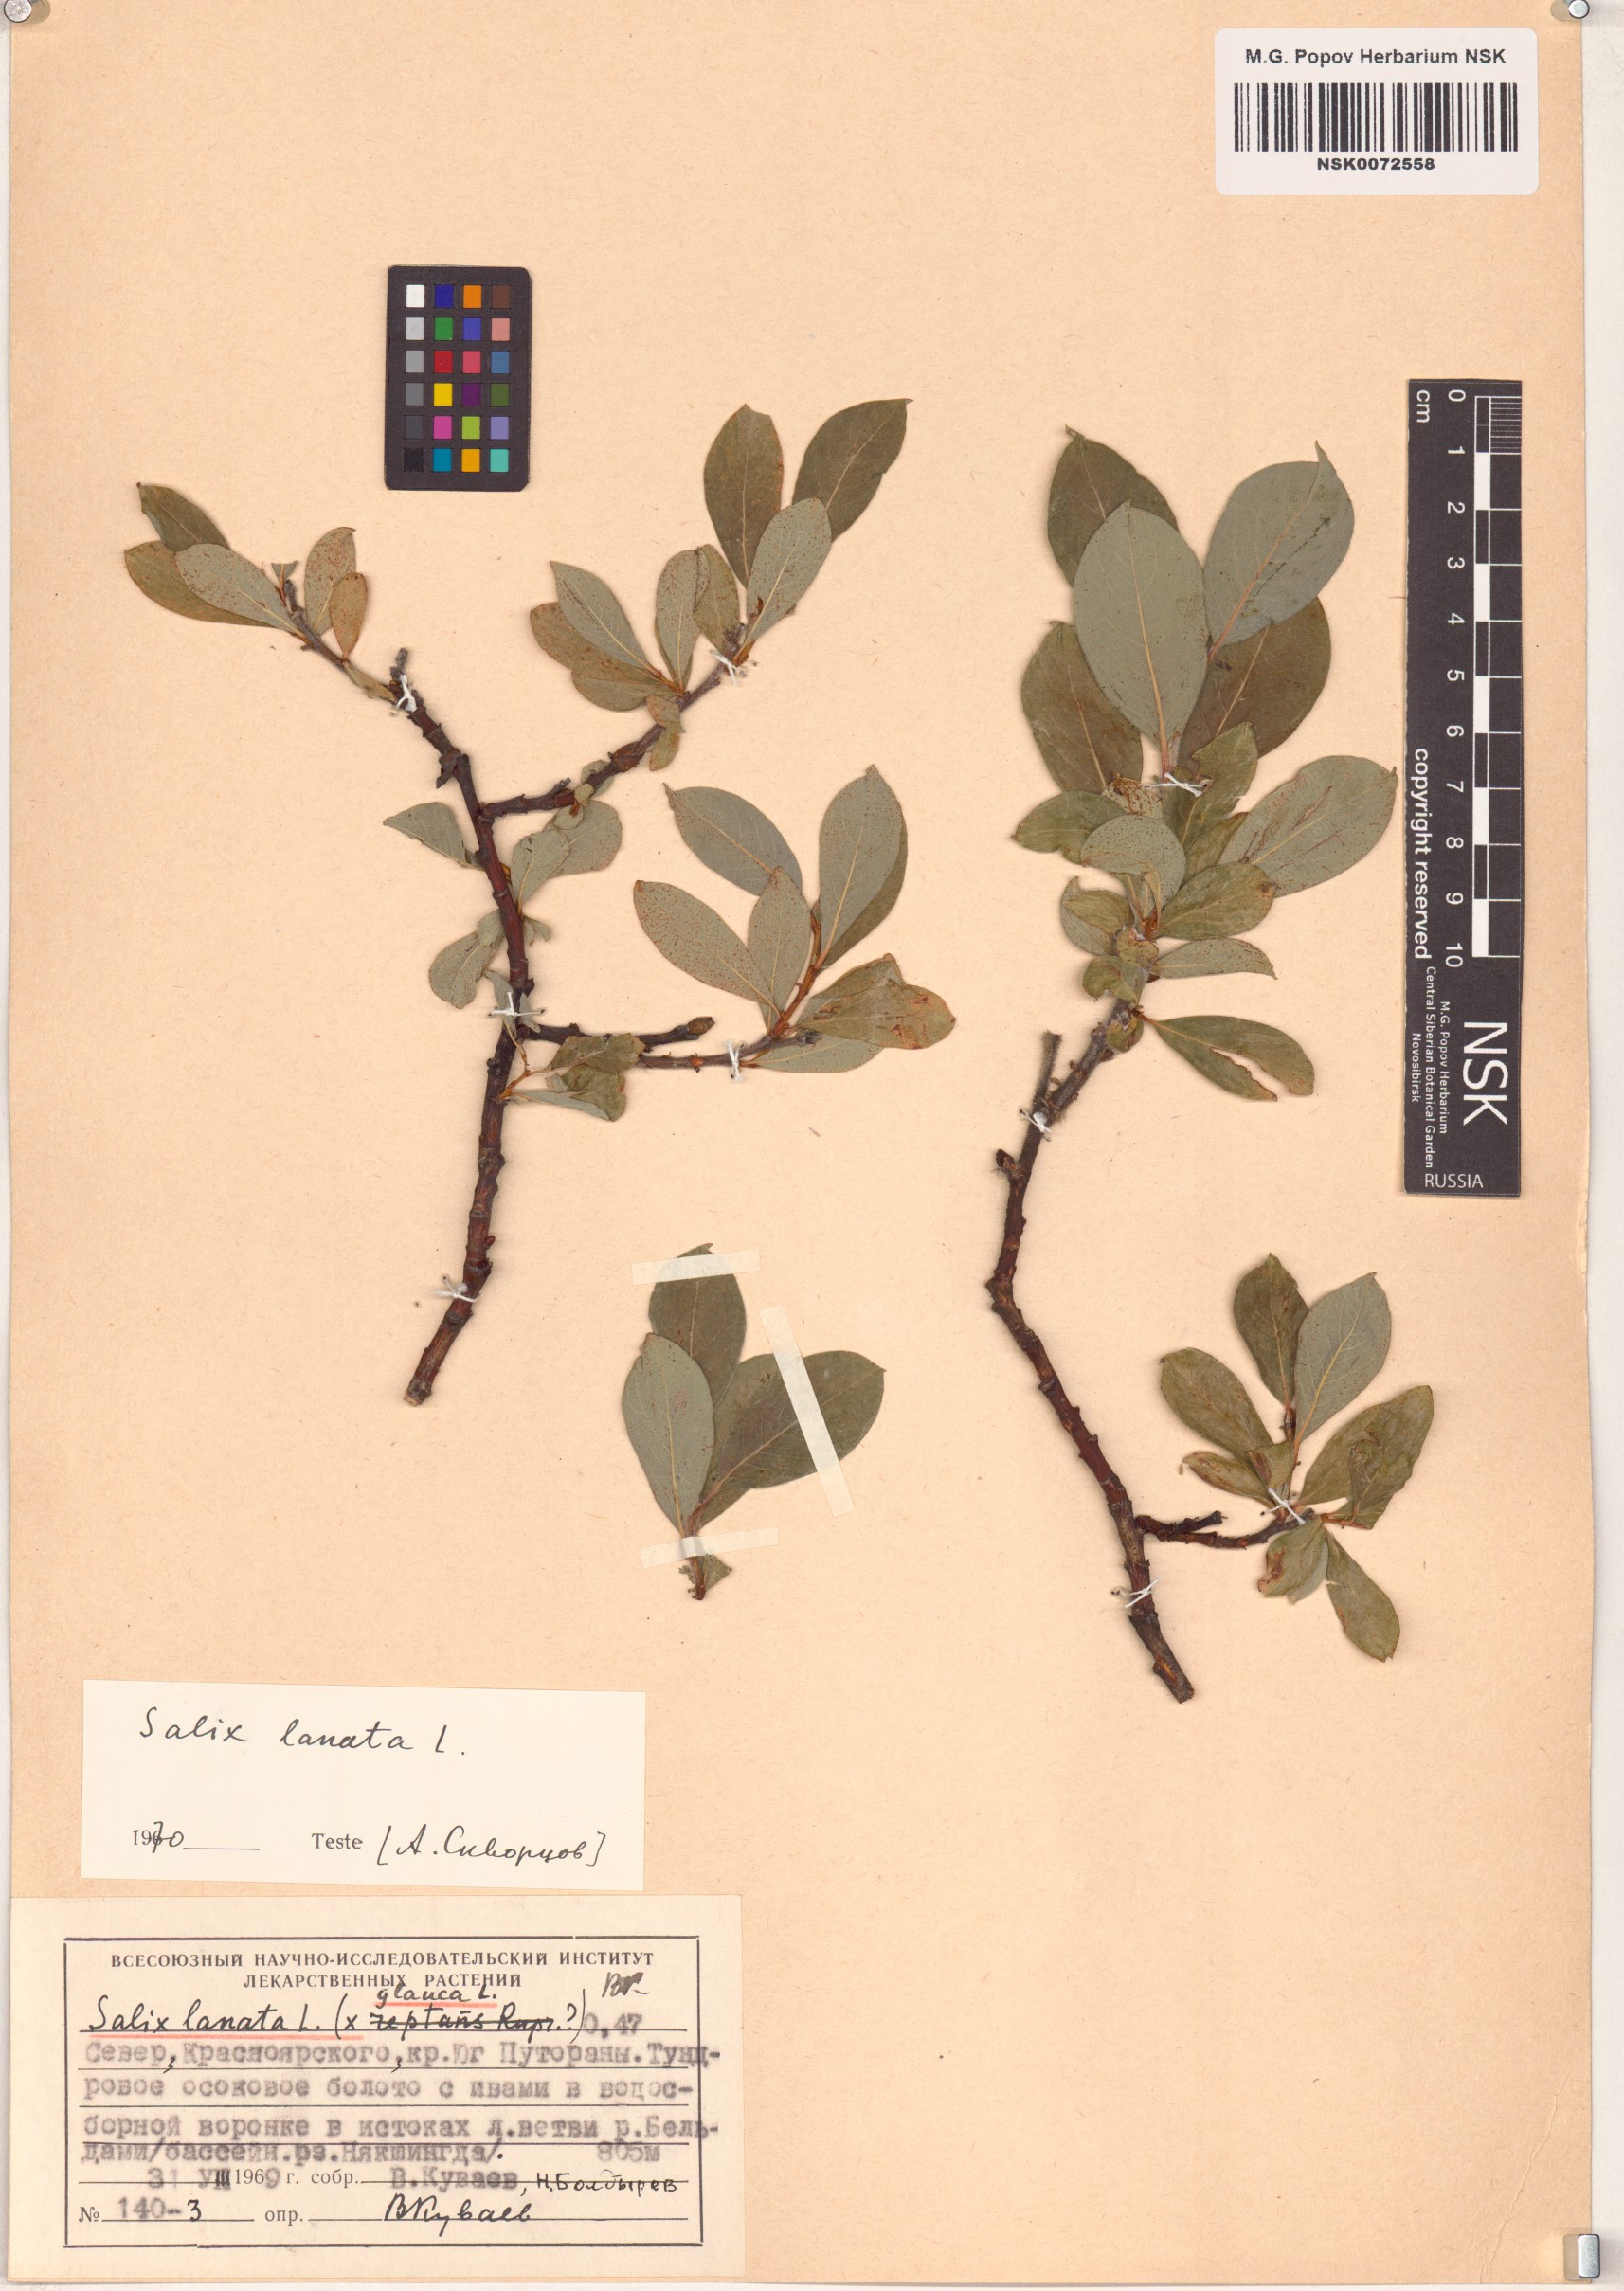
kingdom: Plantae
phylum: Tracheophyta
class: Magnoliopsida
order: Malpighiales
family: Salicaceae
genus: Salix
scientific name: Salix lanata
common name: Woolly willow
